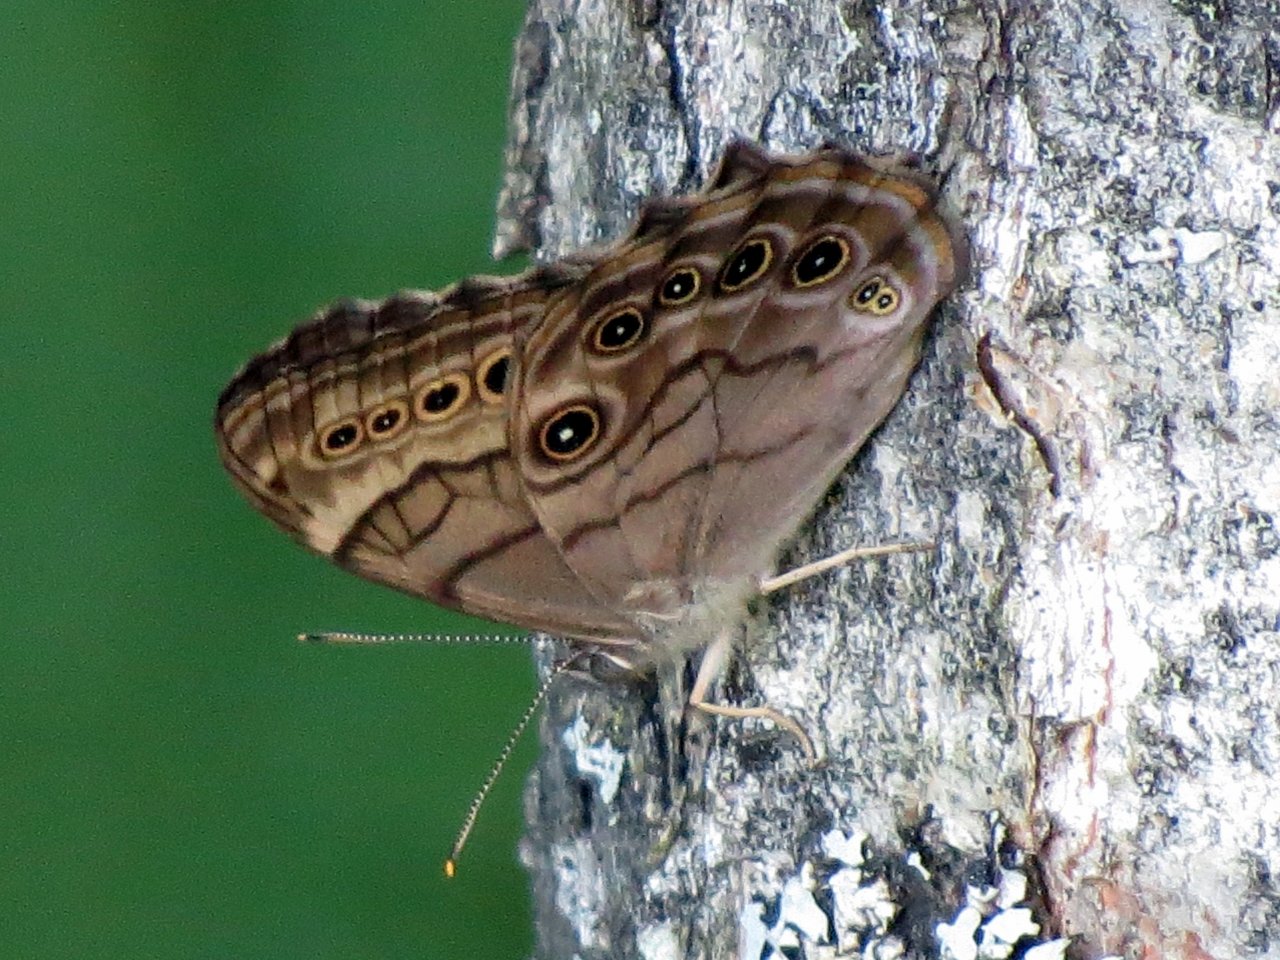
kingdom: Animalia
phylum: Arthropoda
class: Insecta
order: Lepidoptera
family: Nymphalidae
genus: Lethe
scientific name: Lethe anthedon
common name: Northern Pearly-Eye
